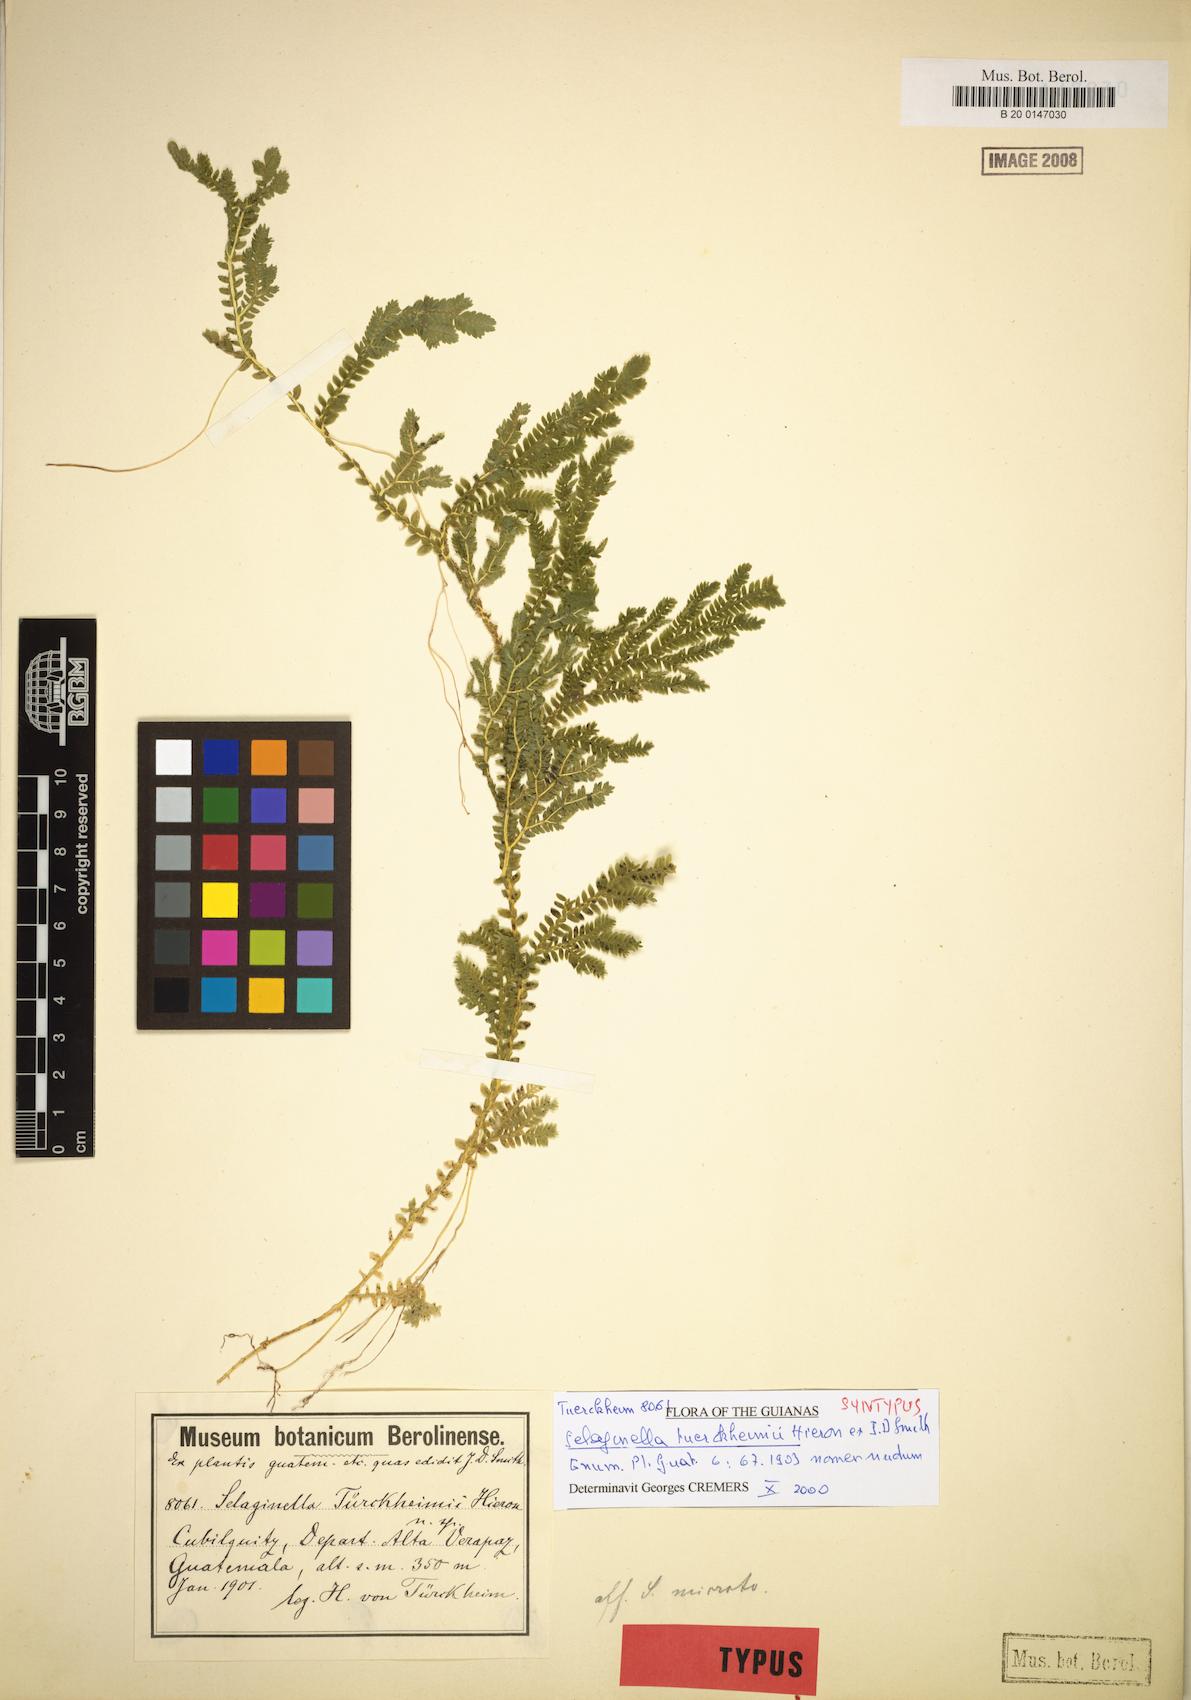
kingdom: Plantae
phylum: Tracheophyta
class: Lycopodiopsida
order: Selaginellales
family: Selaginellaceae
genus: Selaginella
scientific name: Selaginella sertata
